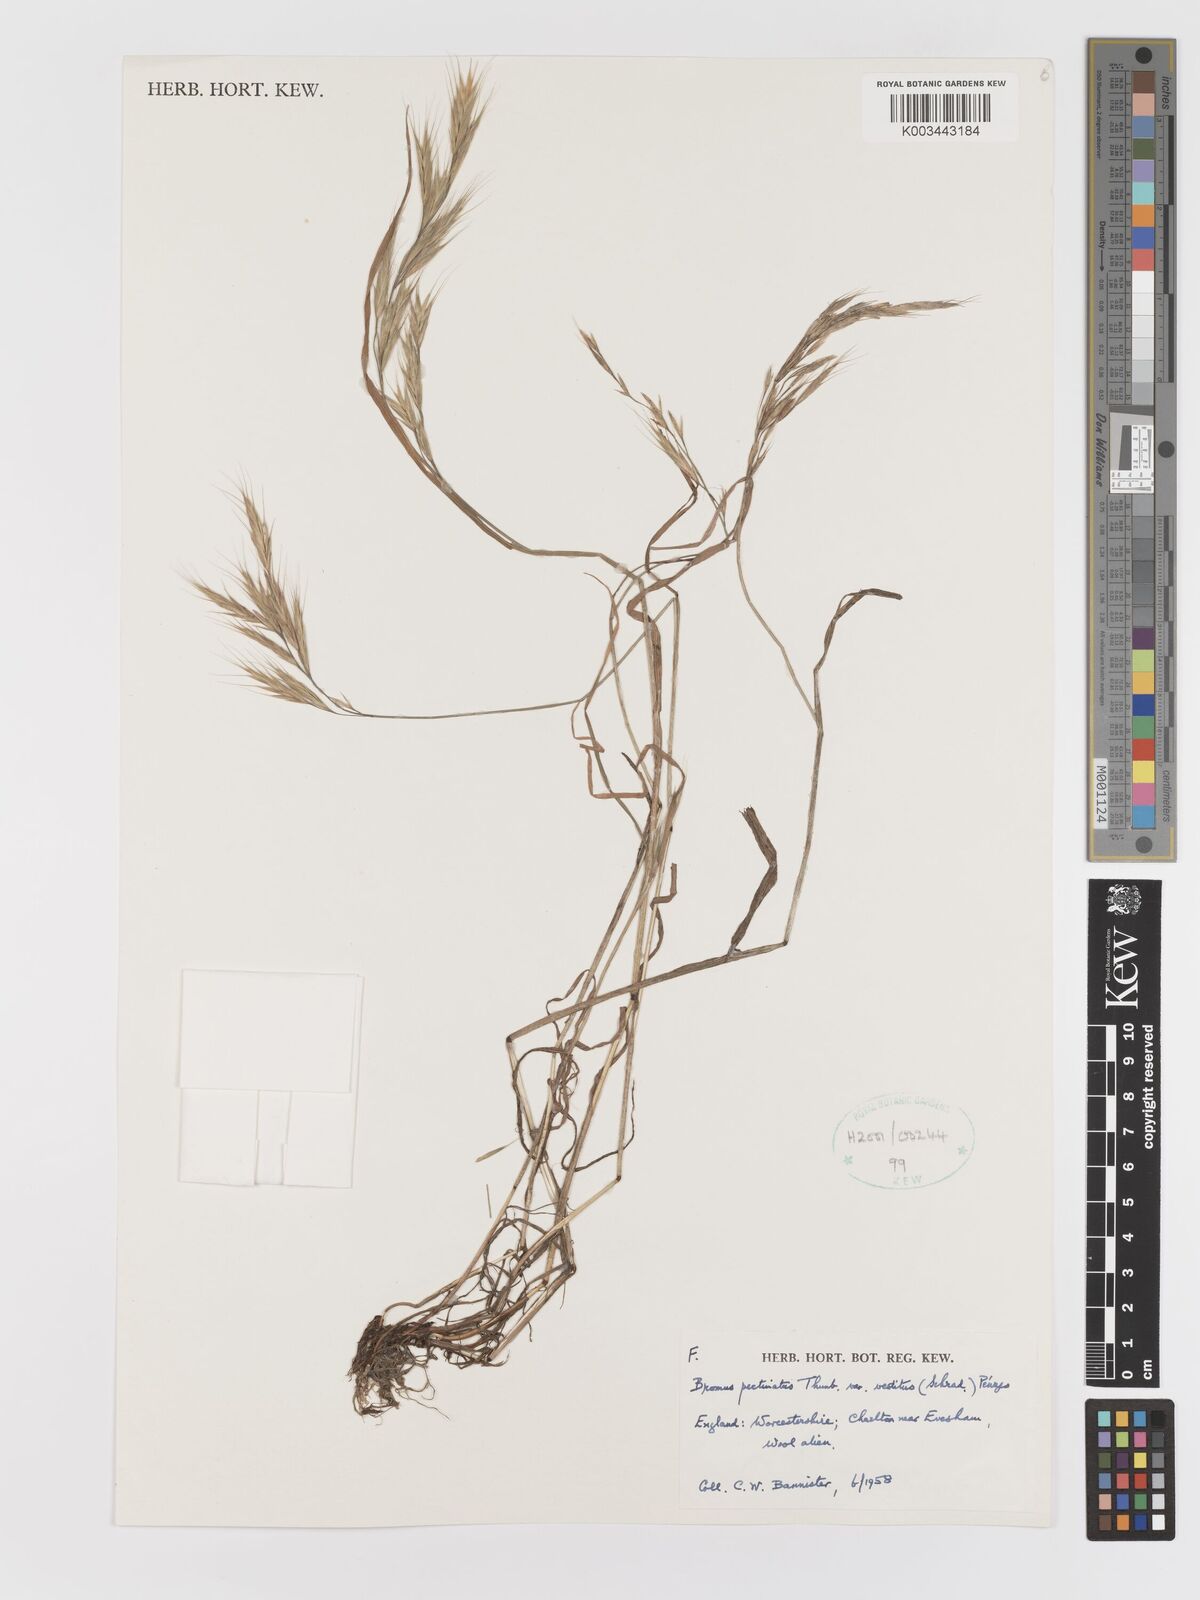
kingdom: Plantae
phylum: Tracheophyta
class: Liliopsida
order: Poales
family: Poaceae
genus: Bromus
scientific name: Bromus pectinatus
